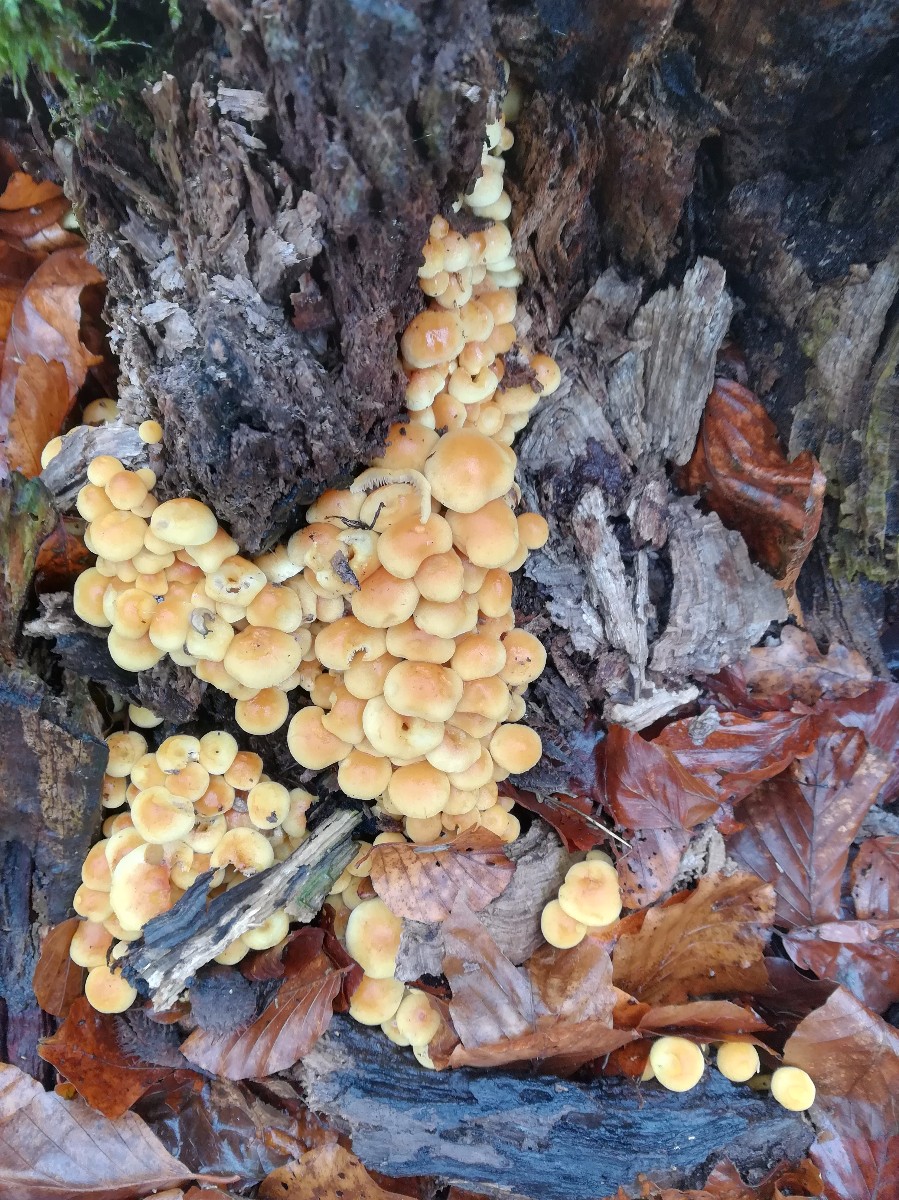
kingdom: Fungi
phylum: Basidiomycota
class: Agaricomycetes
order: Agaricales
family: Strophariaceae
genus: Hypholoma
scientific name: Hypholoma fasciculare
